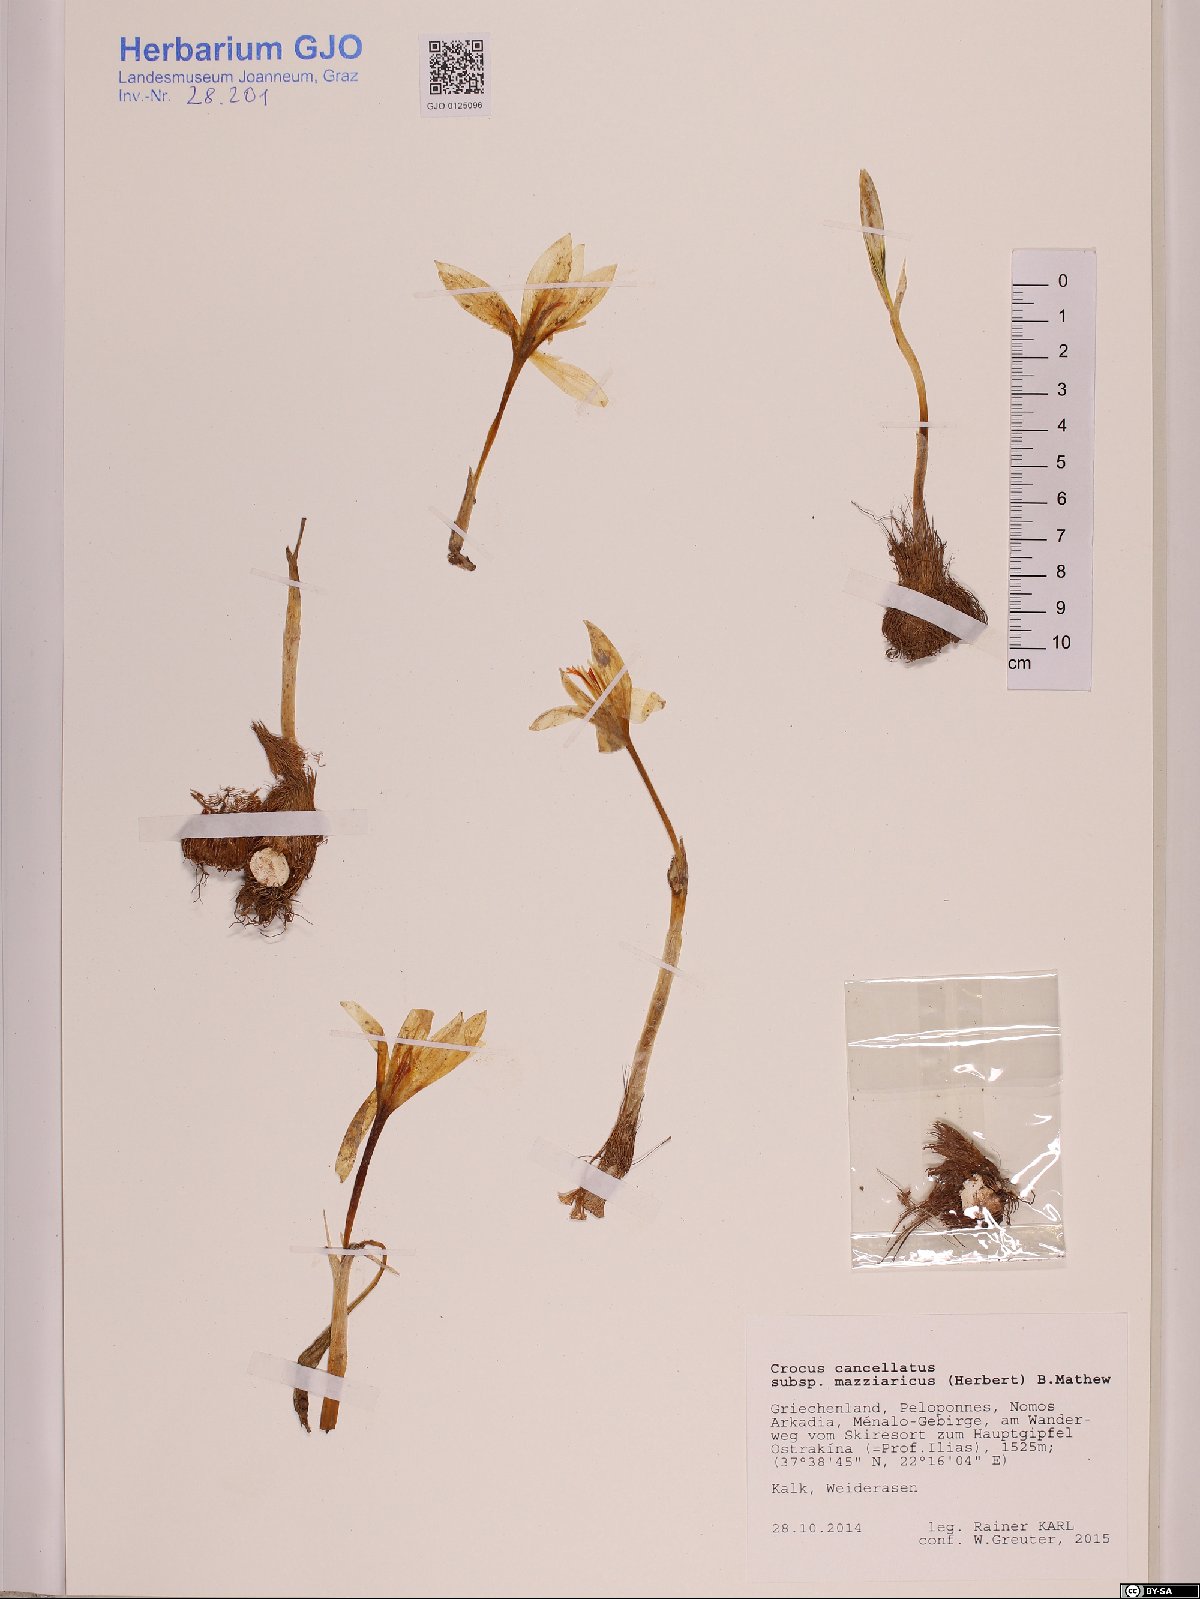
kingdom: Plantae
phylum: Tracheophyta
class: Liliopsida
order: Asparagales
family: Iridaceae
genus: Crocus
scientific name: Crocus mazziaricus
